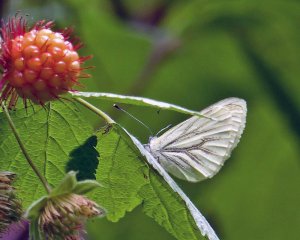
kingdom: Animalia
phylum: Arthropoda
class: Insecta
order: Lepidoptera
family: Pieridae
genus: Pieris
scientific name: Pieris marginalis
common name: Margined White
